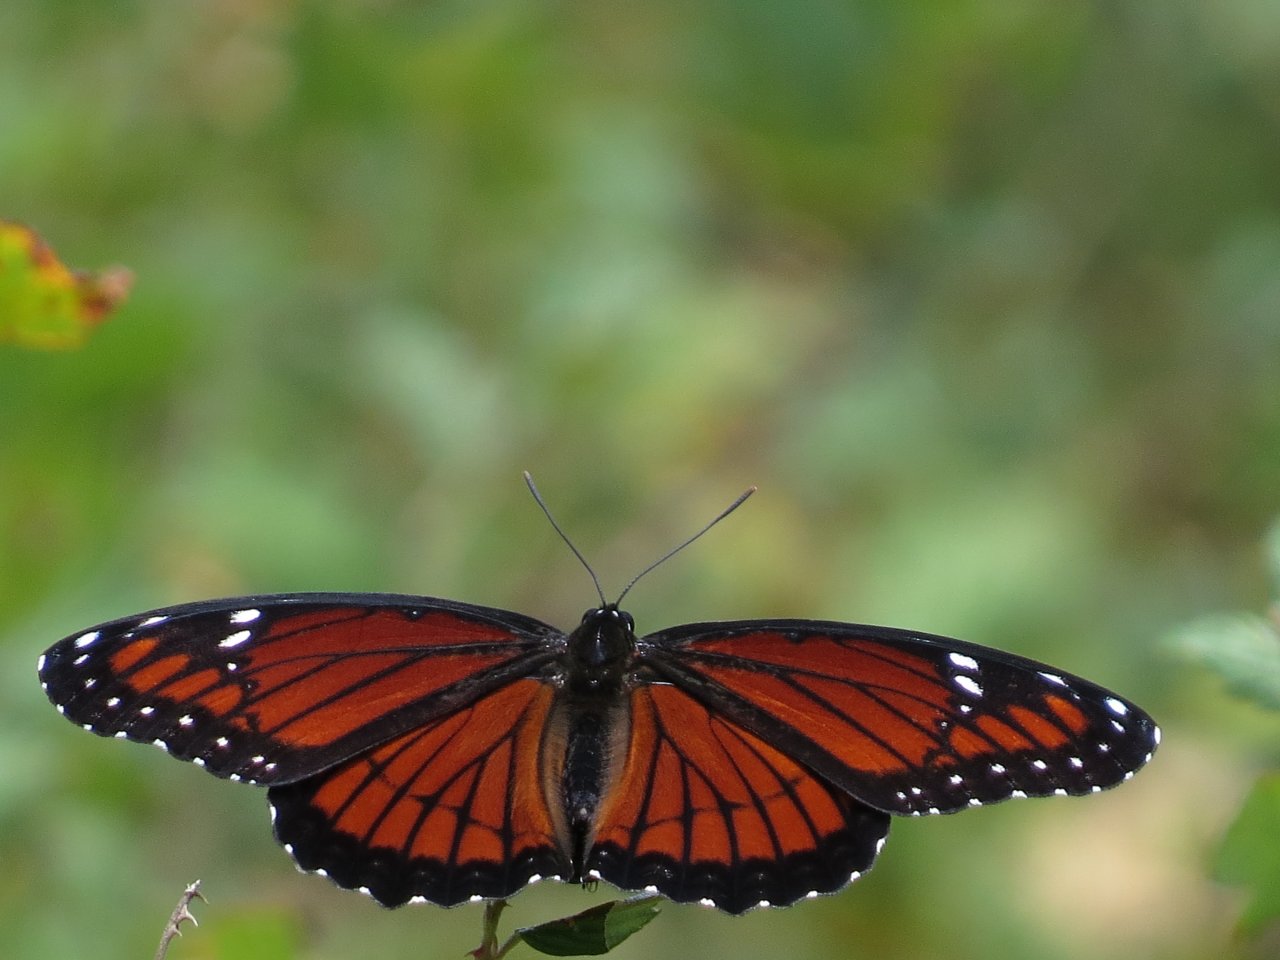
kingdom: Animalia
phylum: Arthropoda
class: Insecta
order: Lepidoptera
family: Nymphalidae
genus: Limenitis
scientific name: Limenitis archippus
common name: Viceroy
